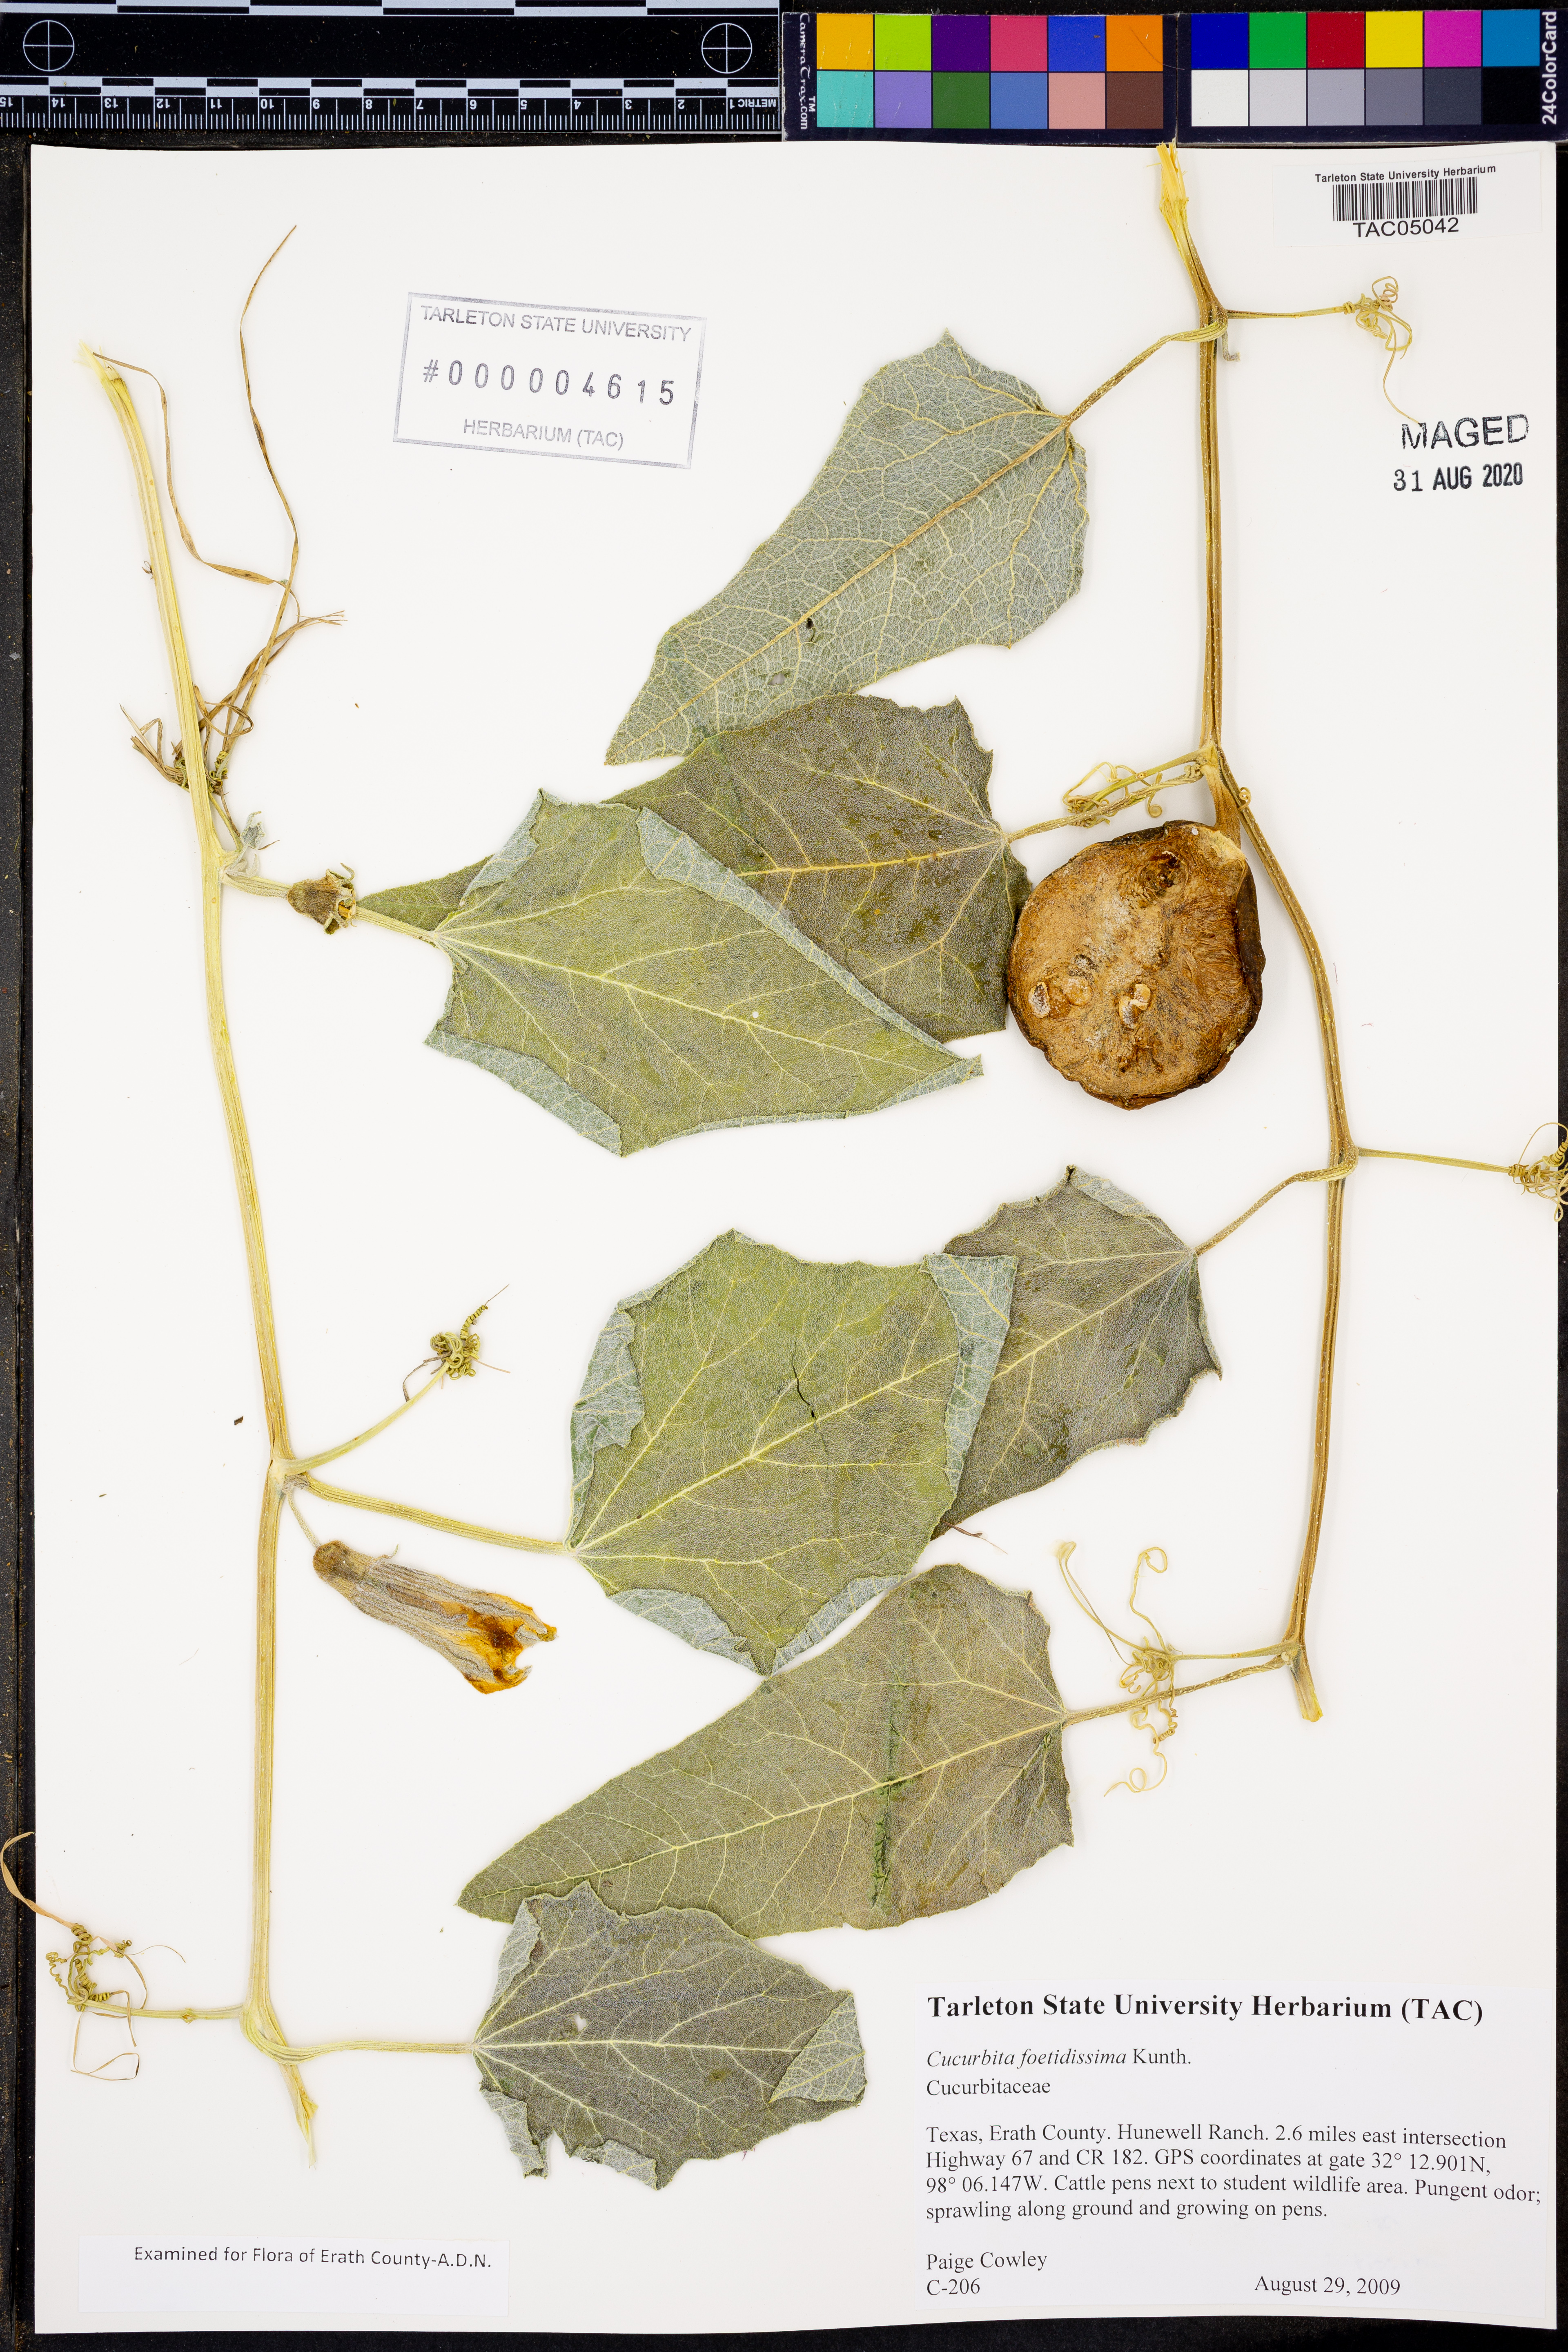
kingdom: Plantae
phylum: Tracheophyta
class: Magnoliopsida
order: Cucurbitales
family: Cucurbitaceae
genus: Cucurbita
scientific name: Cucurbita foetidissima
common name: Buffalo gourd
